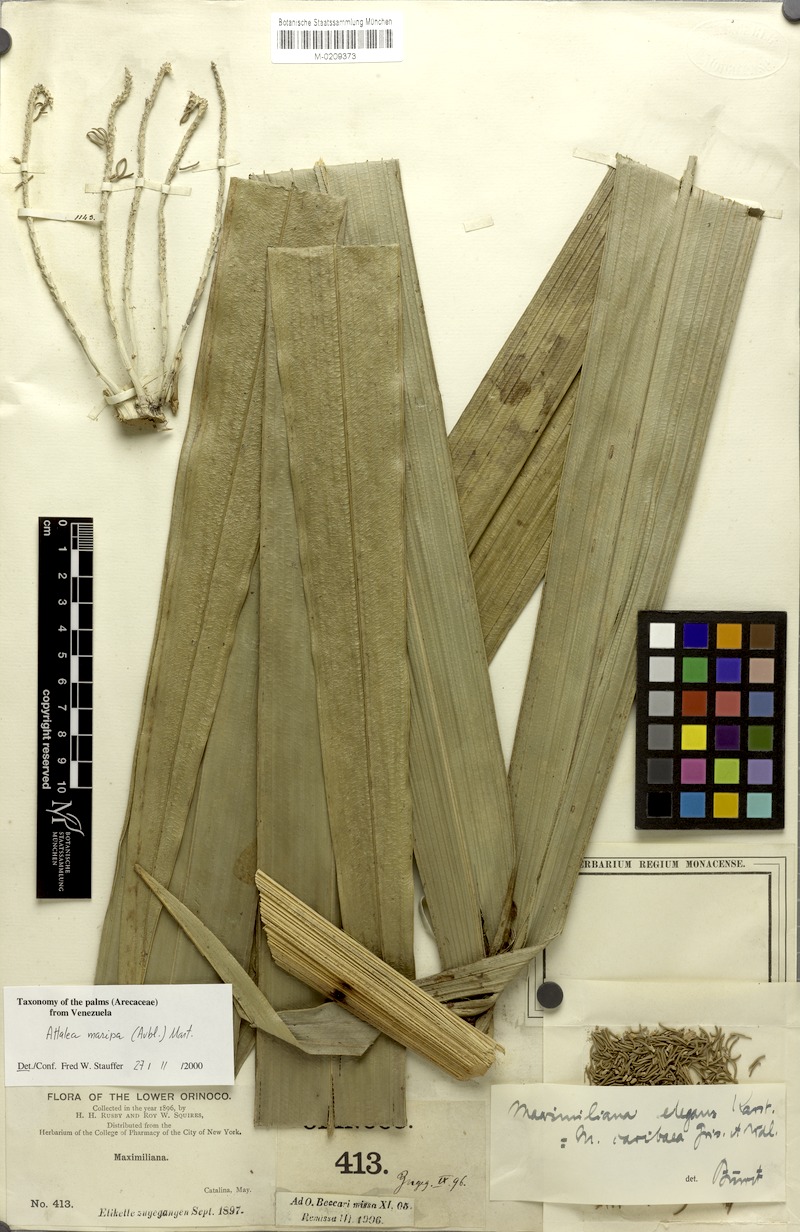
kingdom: Plantae
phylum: Tracheophyta
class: Liliopsida
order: Arecales
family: Arecaceae
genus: Attalea
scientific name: Attalea maripa
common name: Maripa palm
